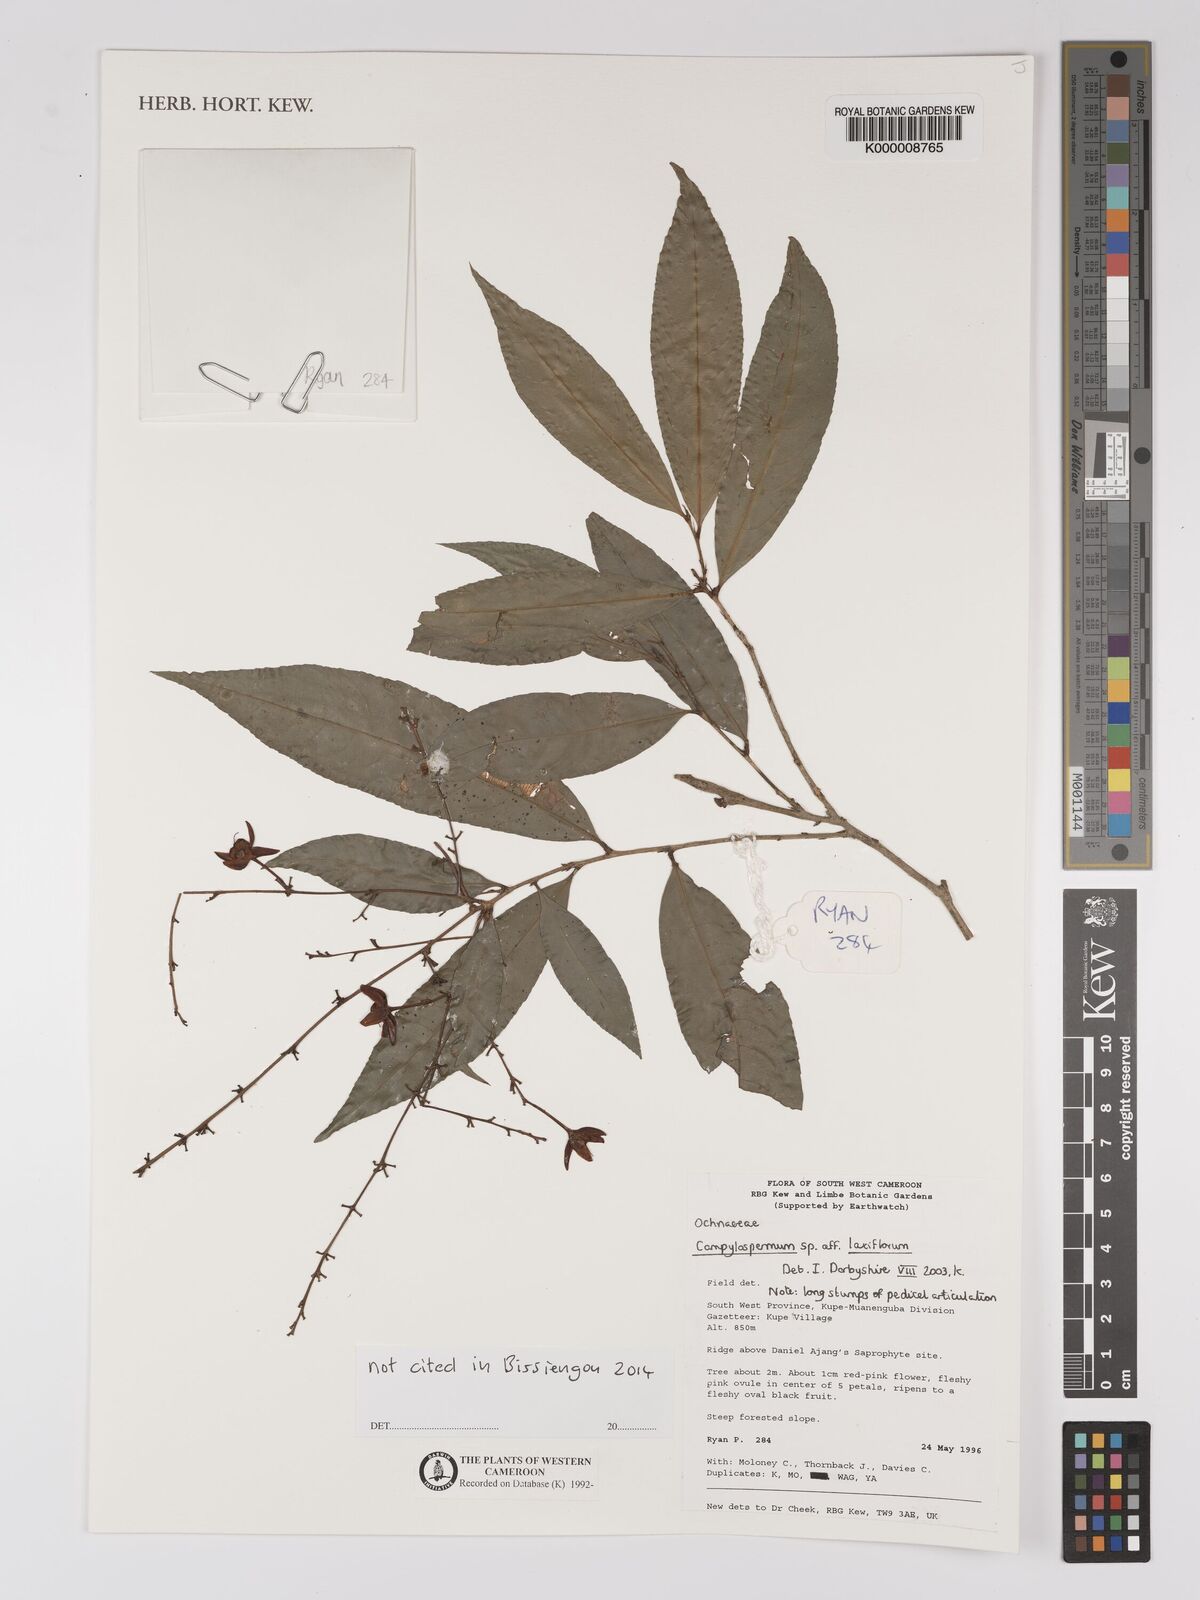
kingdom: Plantae
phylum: Tracheophyta
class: Magnoliopsida
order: Malpighiales
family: Ochnaceae
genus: Campylospermum
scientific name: Campylospermum laxiflorum
